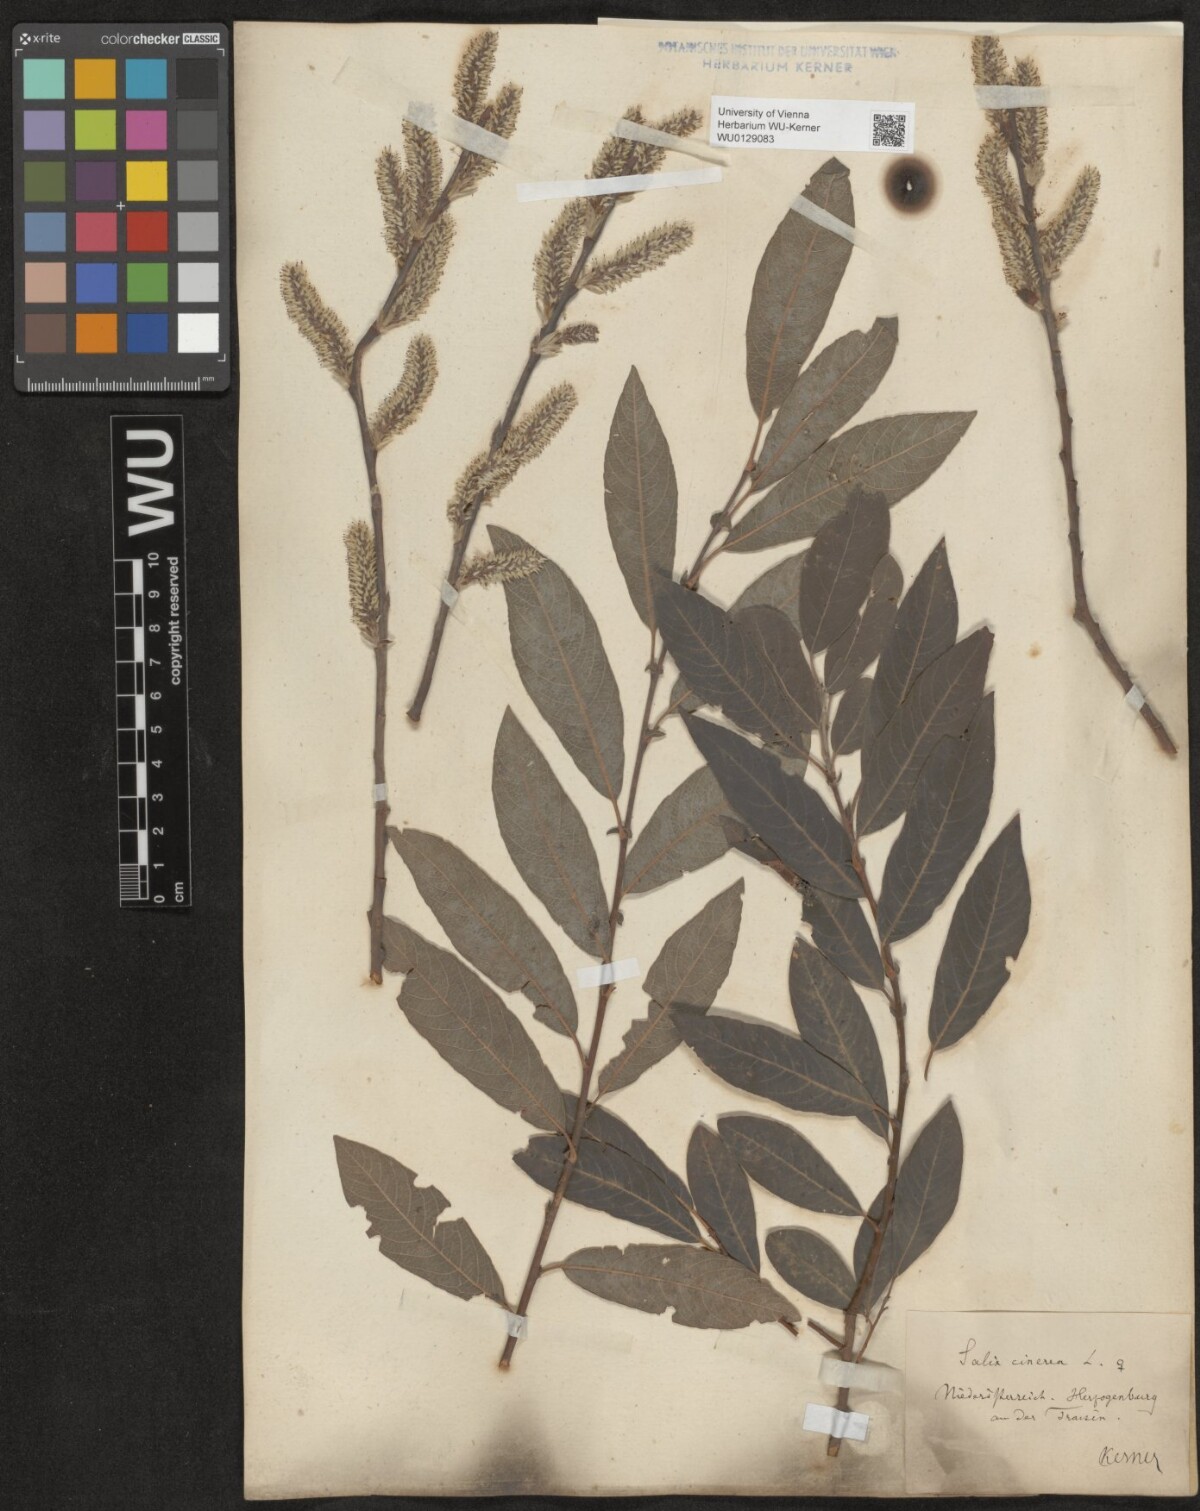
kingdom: Plantae
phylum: Tracheophyta
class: Magnoliopsida
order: Malpighiales
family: Salicaceae
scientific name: Salicaceae
